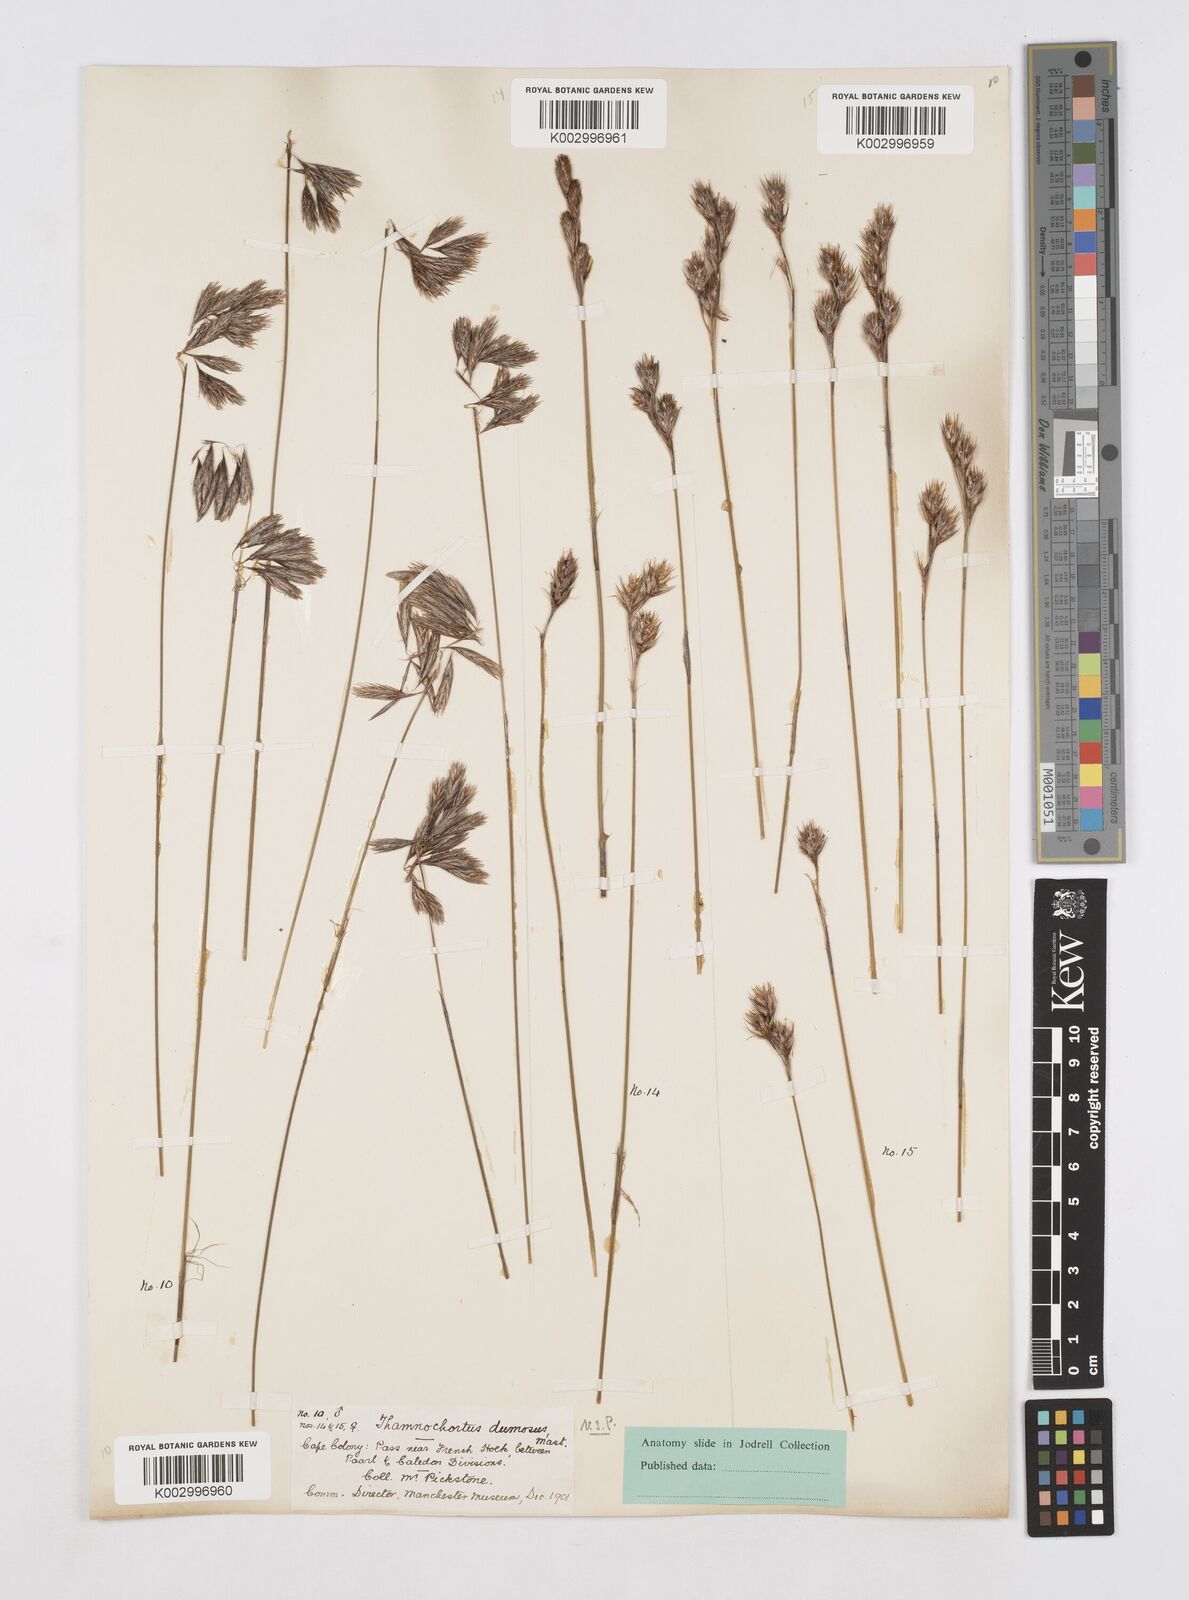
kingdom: Plantae
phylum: Tracheophyta
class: Liliopsida
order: Poales
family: Restionaceae
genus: Thamnochortus
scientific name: Thamnochortus dumosus
